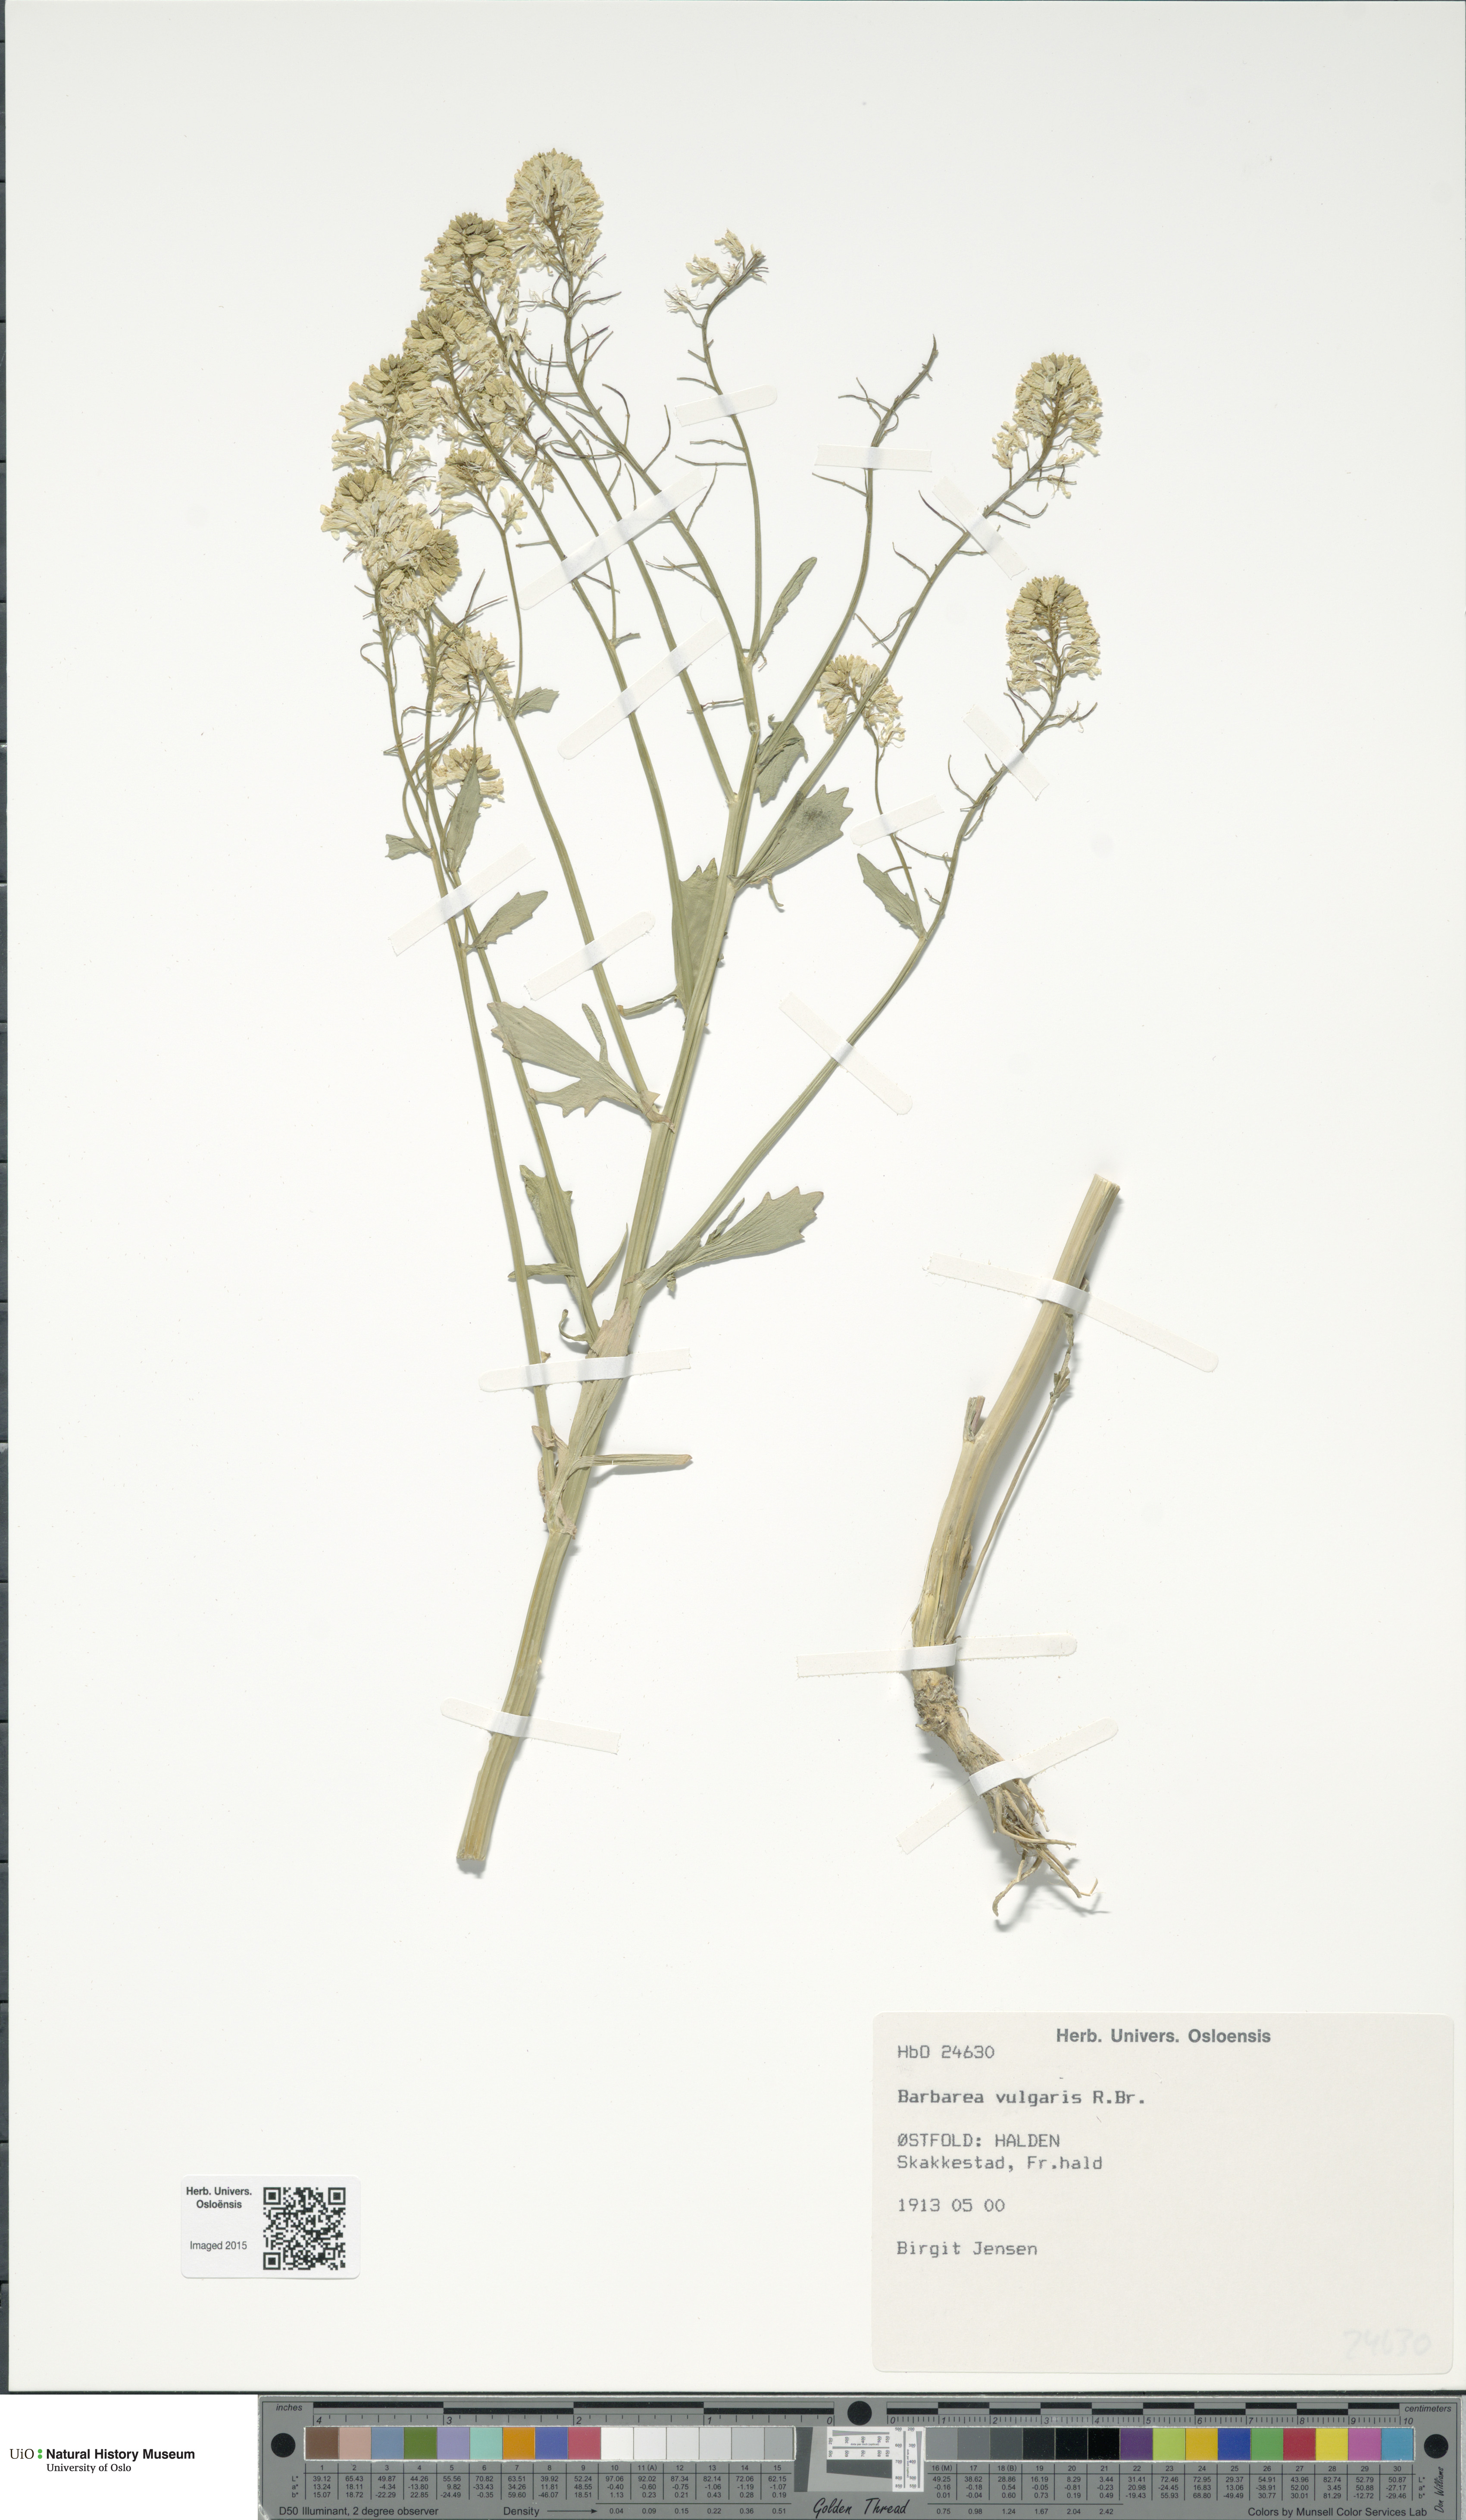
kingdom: Plantae
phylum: Tracheophyta
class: Magnoliopsida
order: Brassicales
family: Brassicaceae
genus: Barbarea
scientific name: Barbarea vulgaris
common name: Cressy-greens
